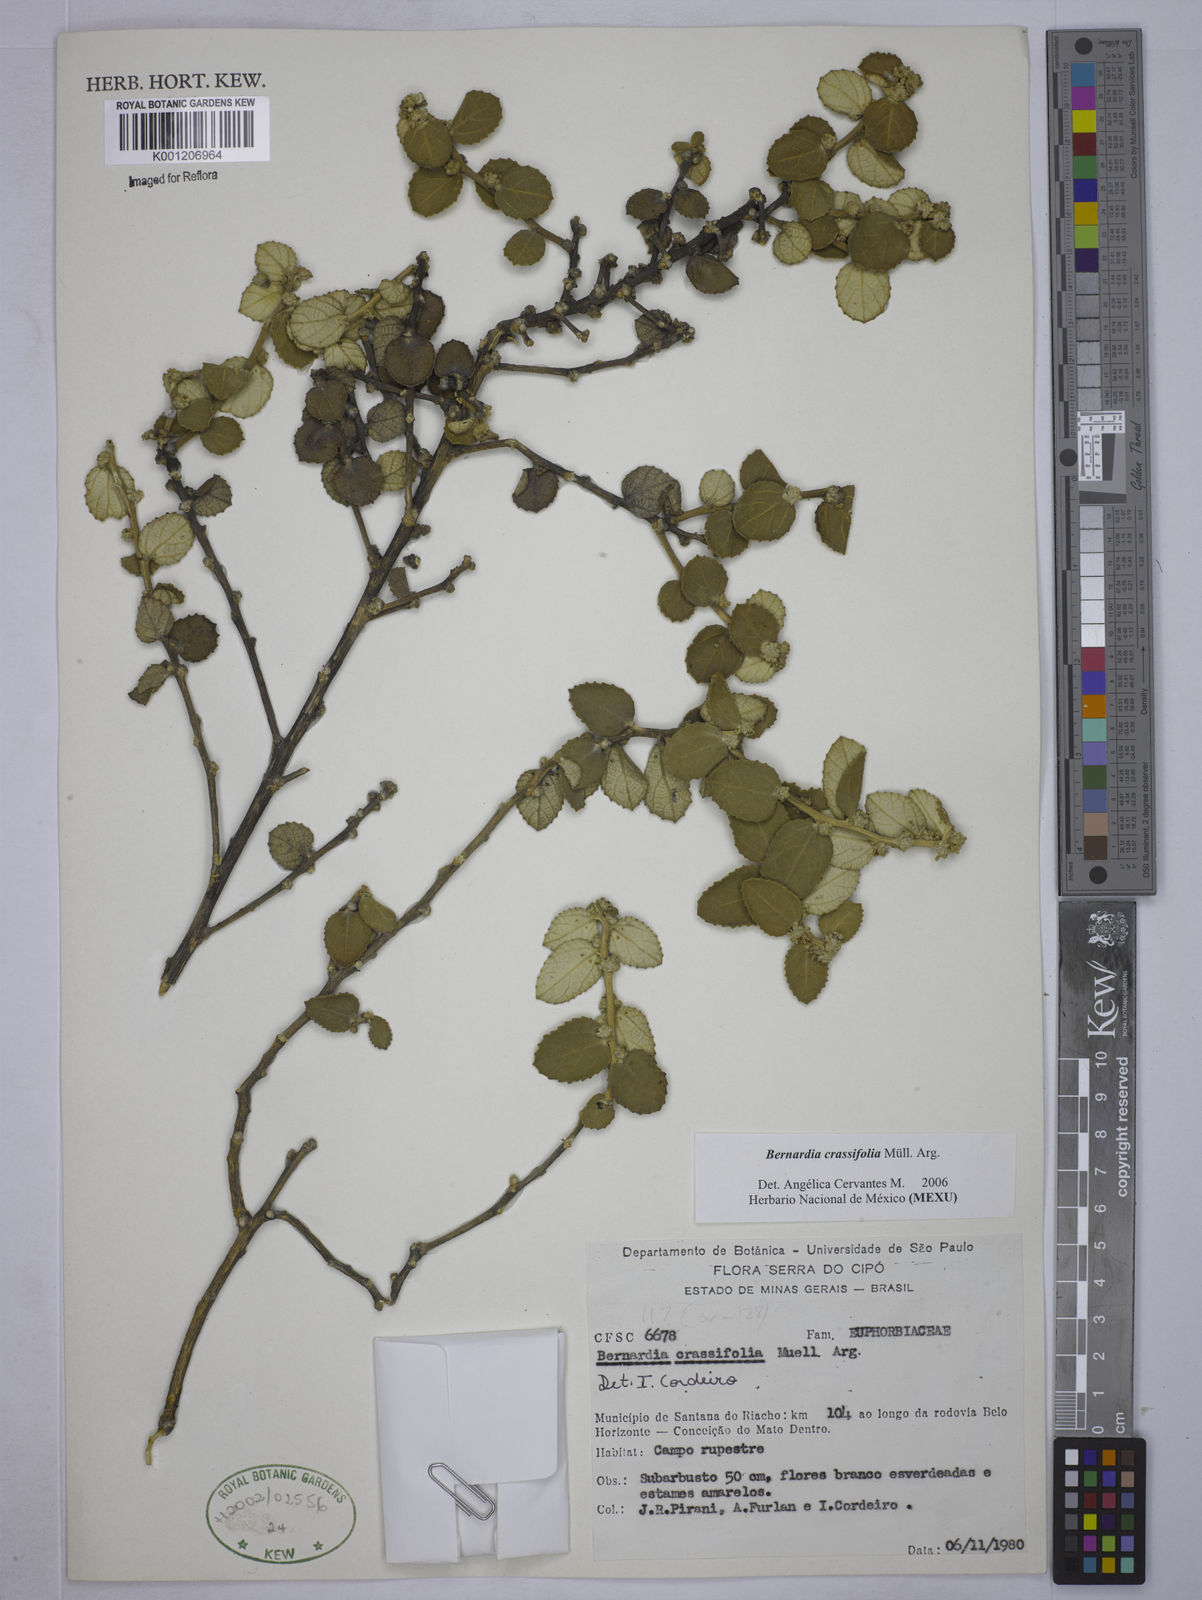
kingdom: Plantae
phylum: Tracheophyta
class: Magnoliopsida
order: Malpighiales
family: Euphorbiaceae
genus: Bernardia
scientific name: Bernardia
